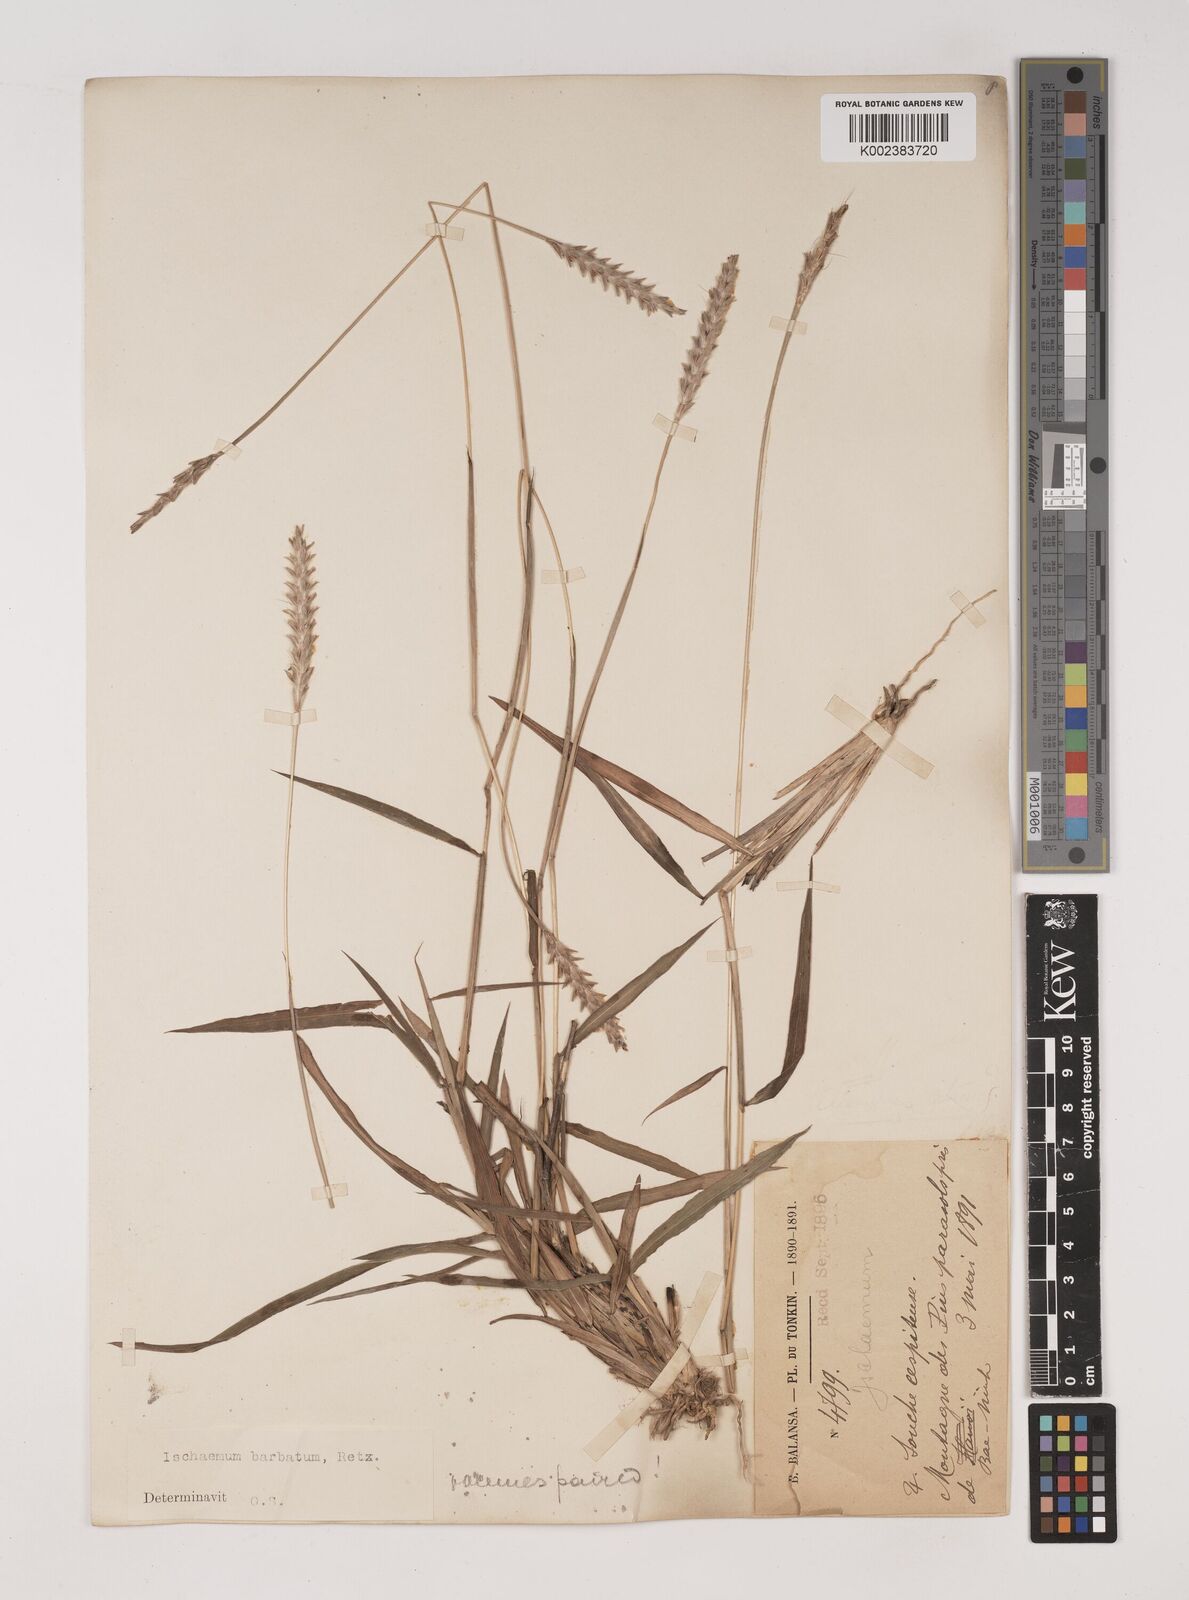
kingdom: Plantae
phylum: Tracheophyta
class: Liliopsida
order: Poales
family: Poaceae
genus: Ischaemum
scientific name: Ischaemum
